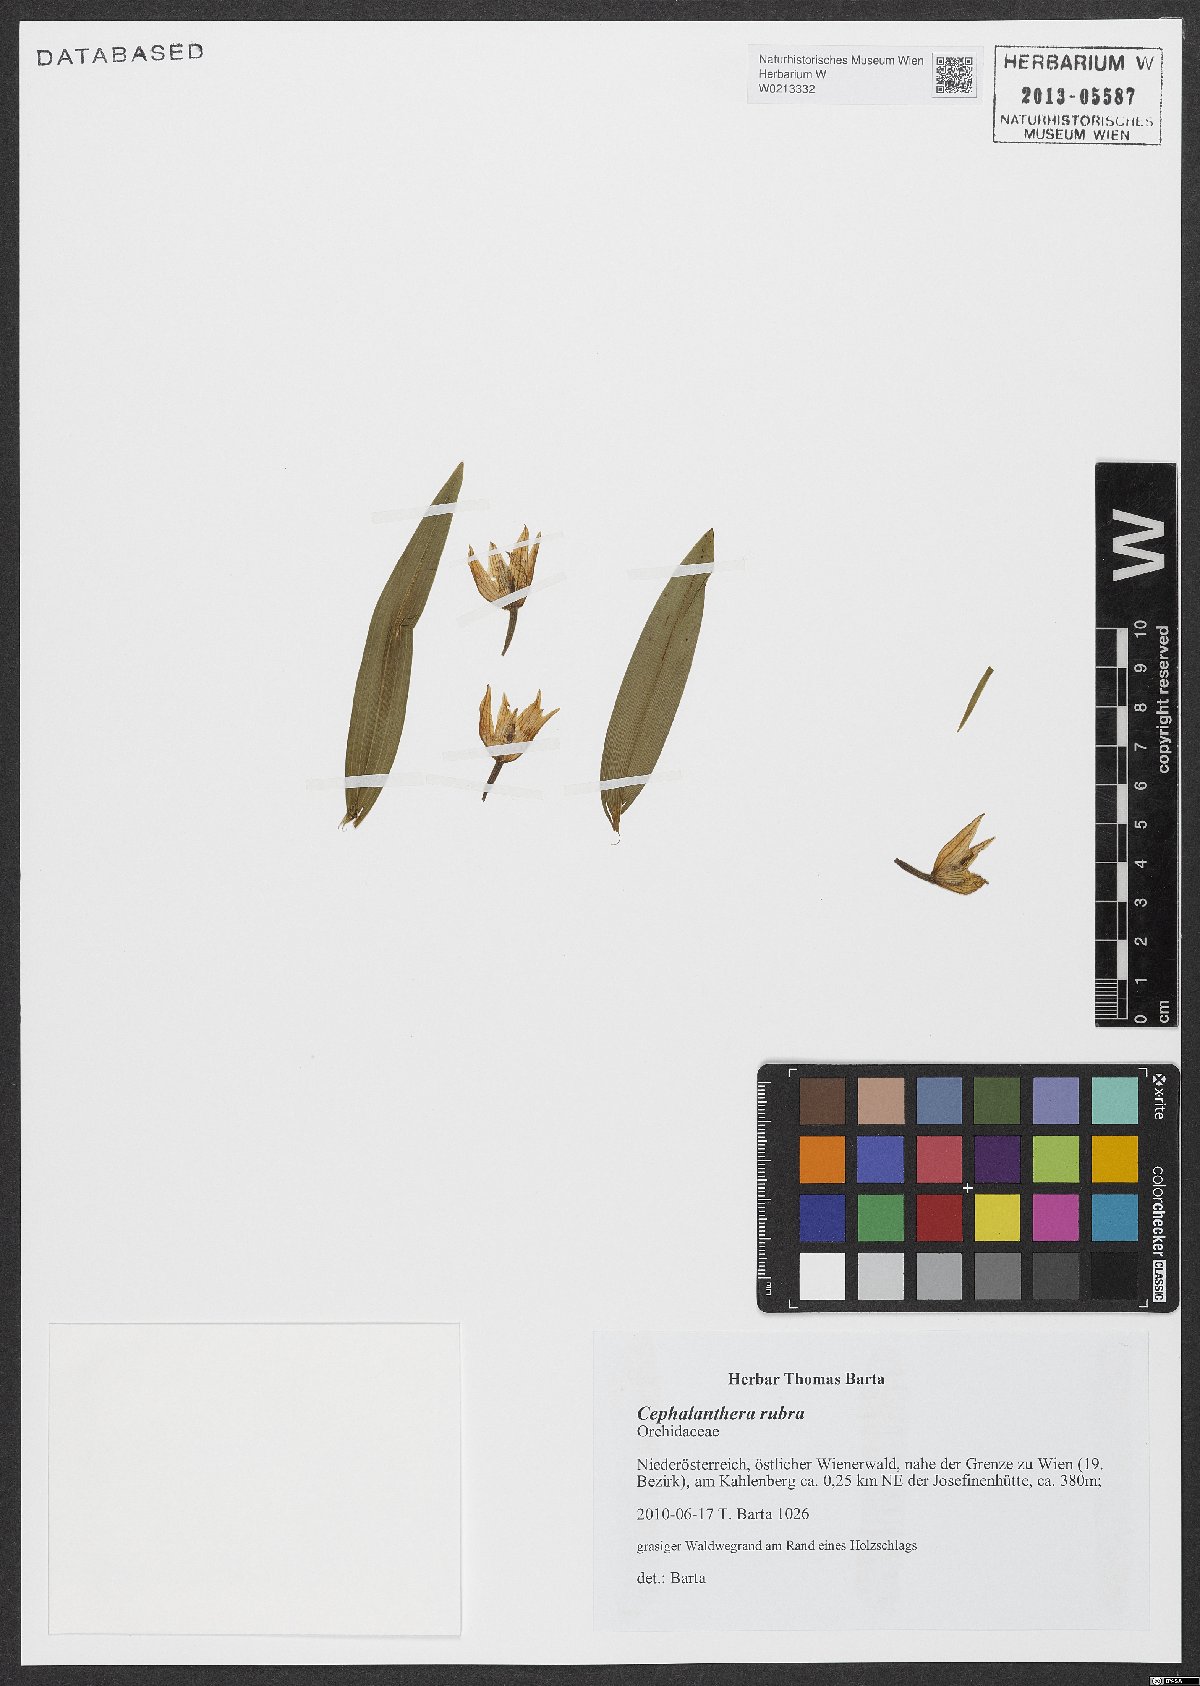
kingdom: Plantae
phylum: Tracheophyta
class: Liliopsida
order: Asparagales
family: Orchidaceae
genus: Cephalanthera
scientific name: Cephalanthera rubra
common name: Red helleborine
